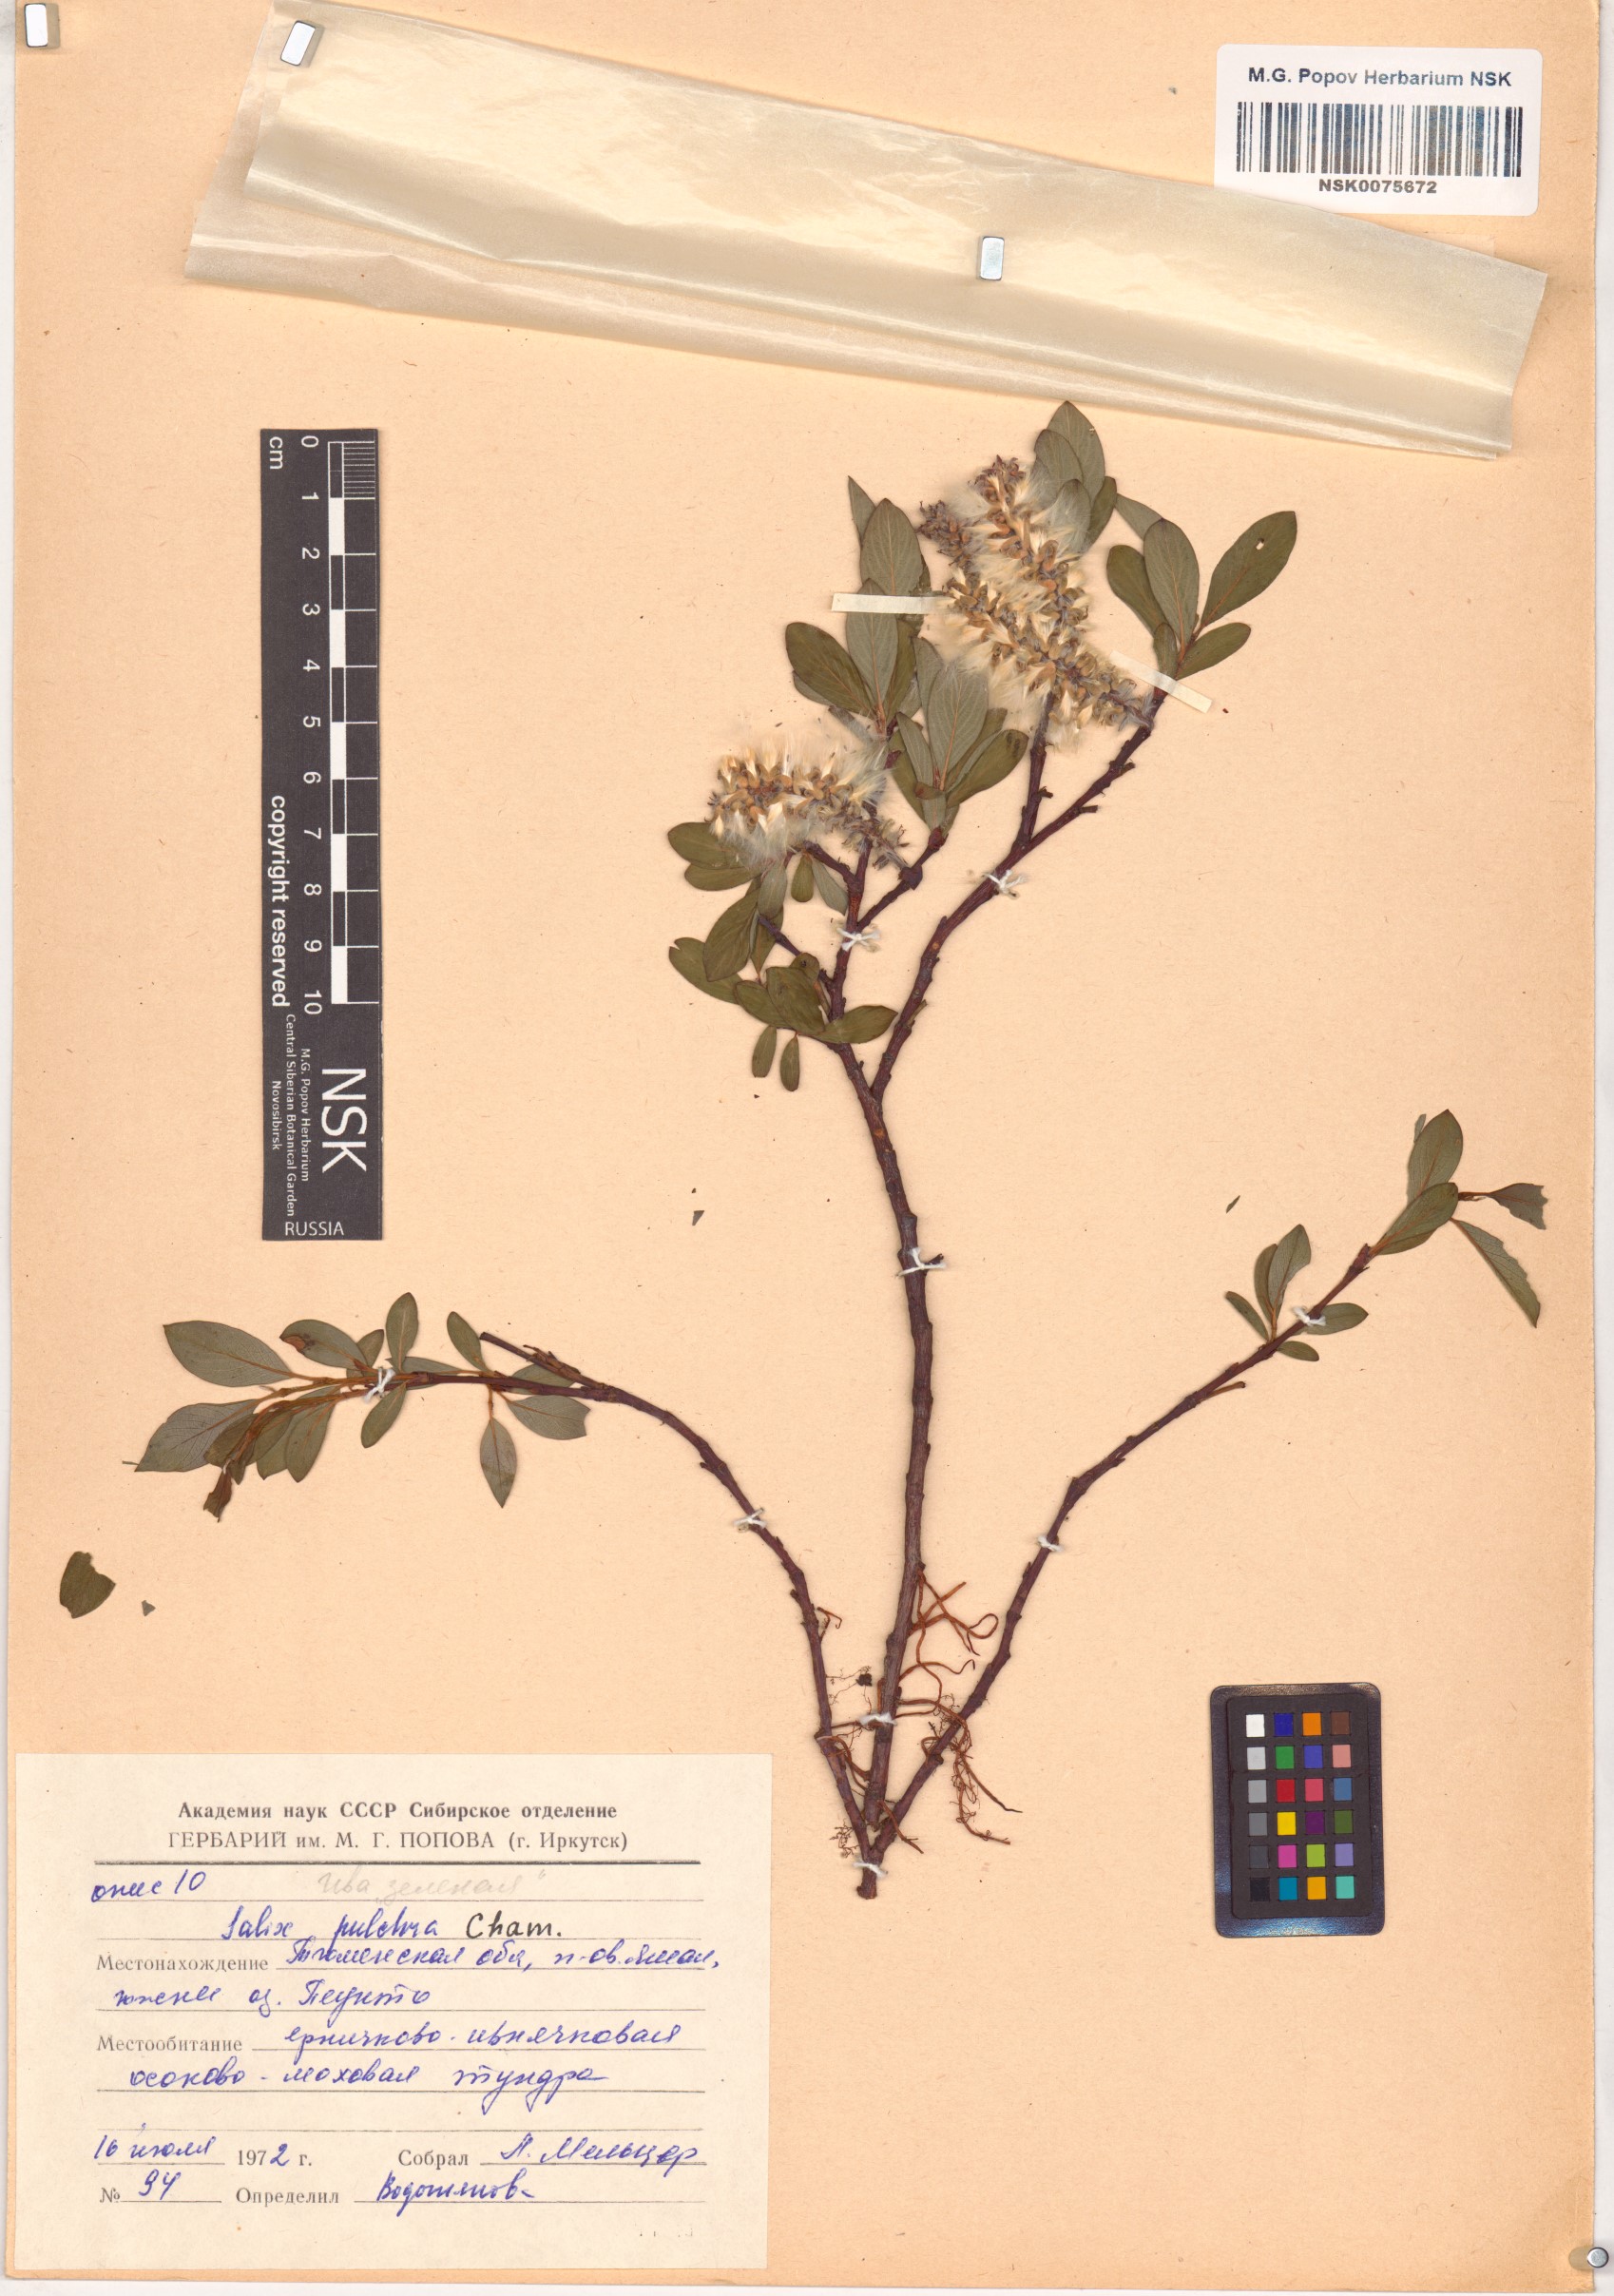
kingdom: Plantae
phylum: Tracheophyta
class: Magnoliopsida
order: Malpighiales
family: Salicaceae
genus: Salix
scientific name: Salix pulchra
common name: Diamond-leaved willow
